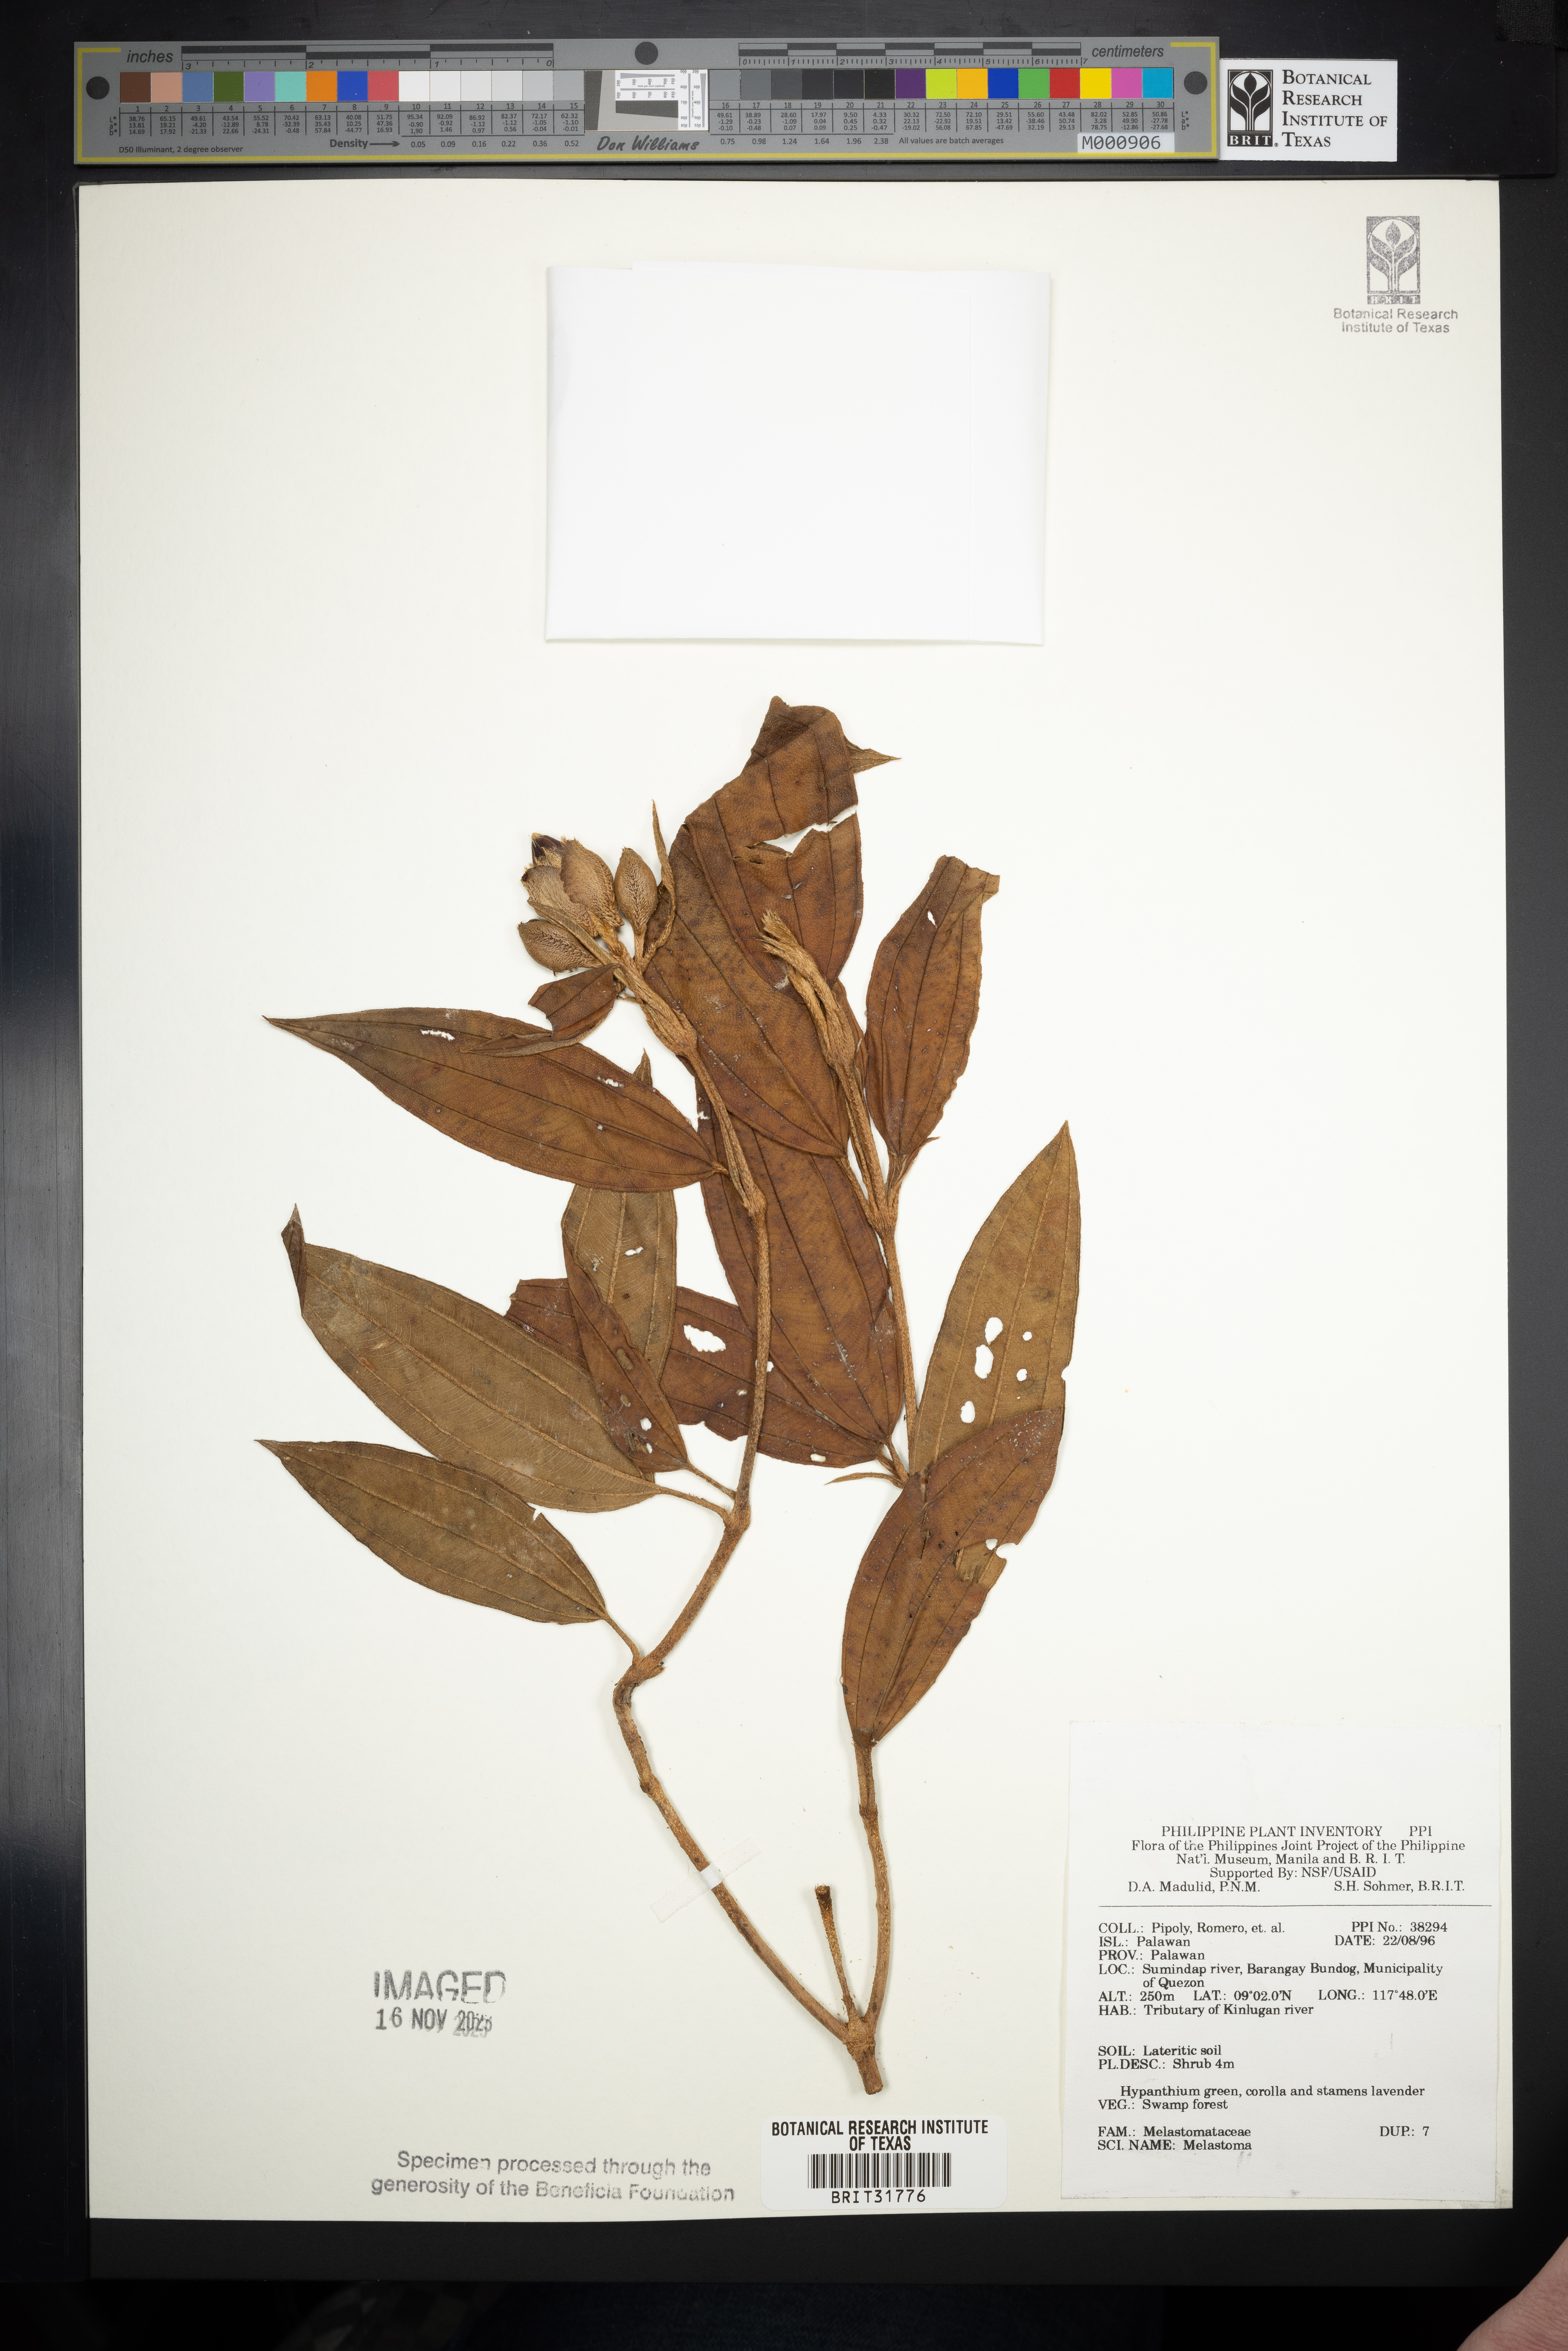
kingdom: Plantae
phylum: Tracheophyta
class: Magnoliopsida
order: Myrtales
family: Melastomataceae
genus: Melastoma
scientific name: Melastoma
